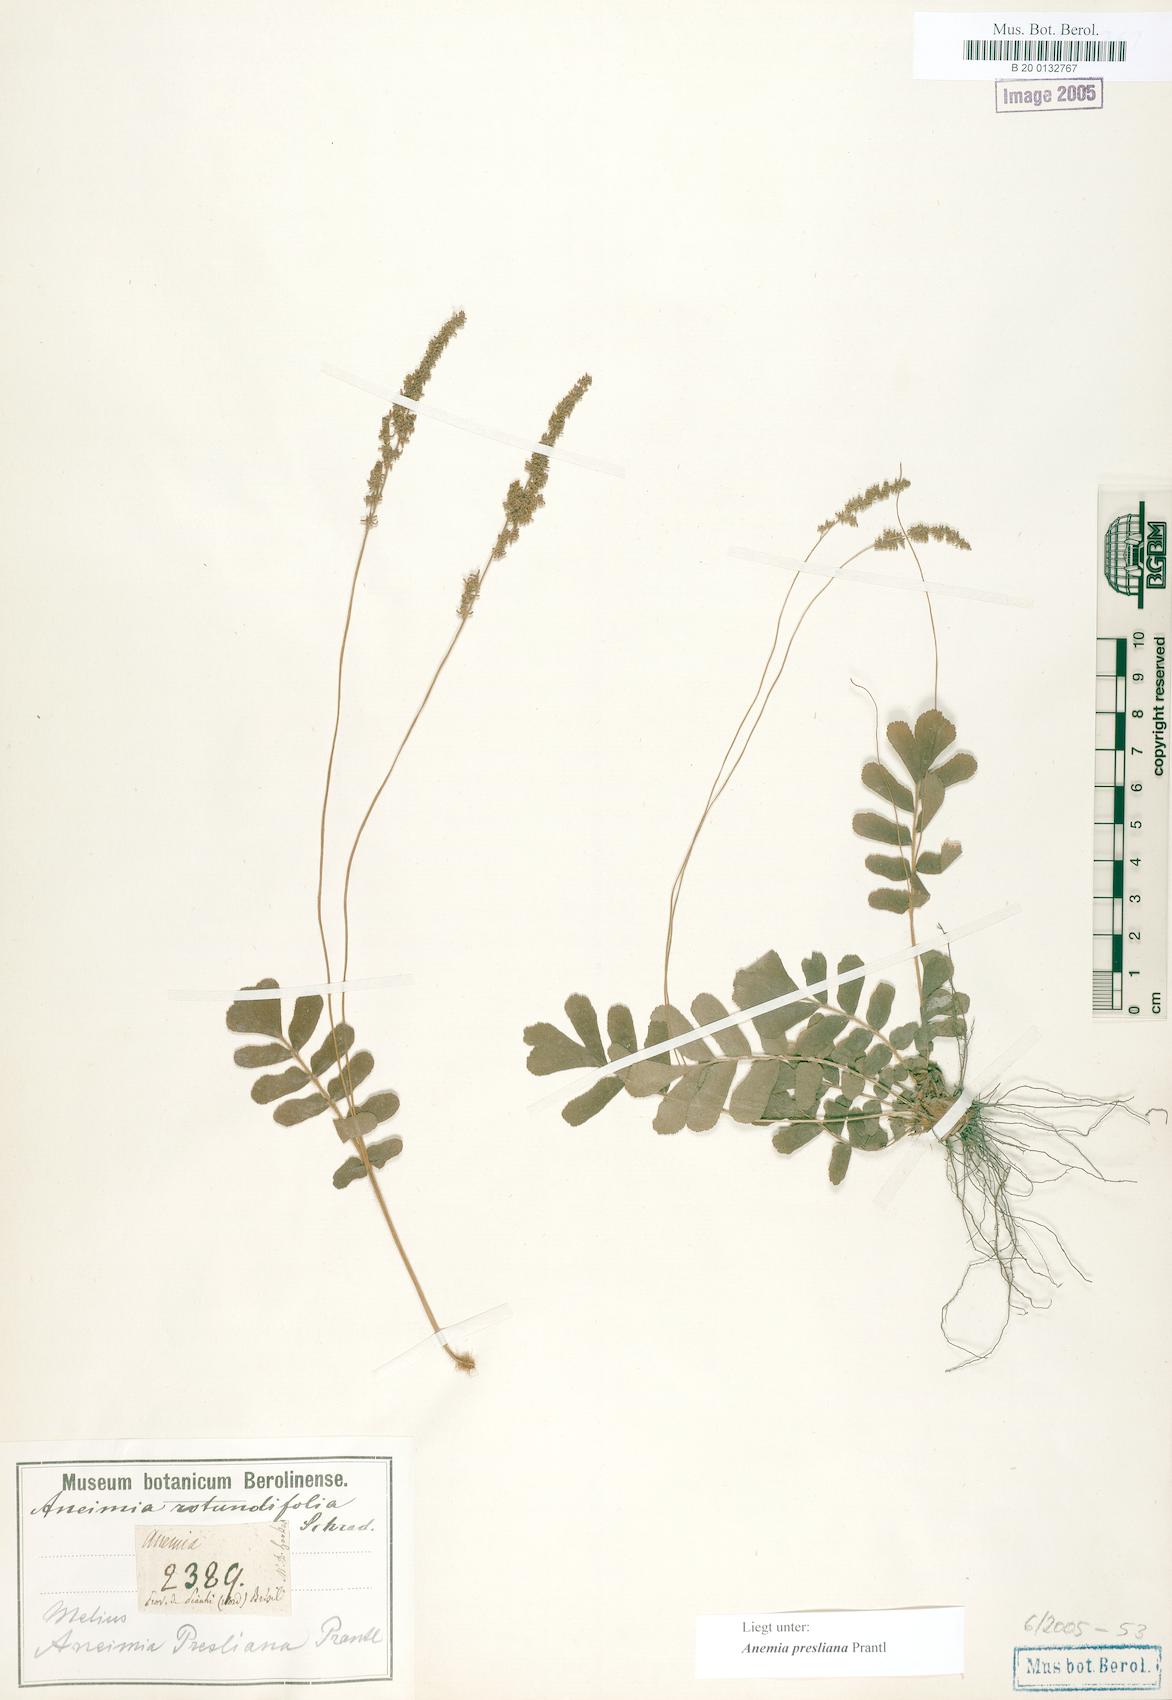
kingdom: Plantae
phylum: Tracheophyta
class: Polypodiopsida
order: Schizaeales
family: Anemiaceae
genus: Anemia
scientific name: Anemia presliana
